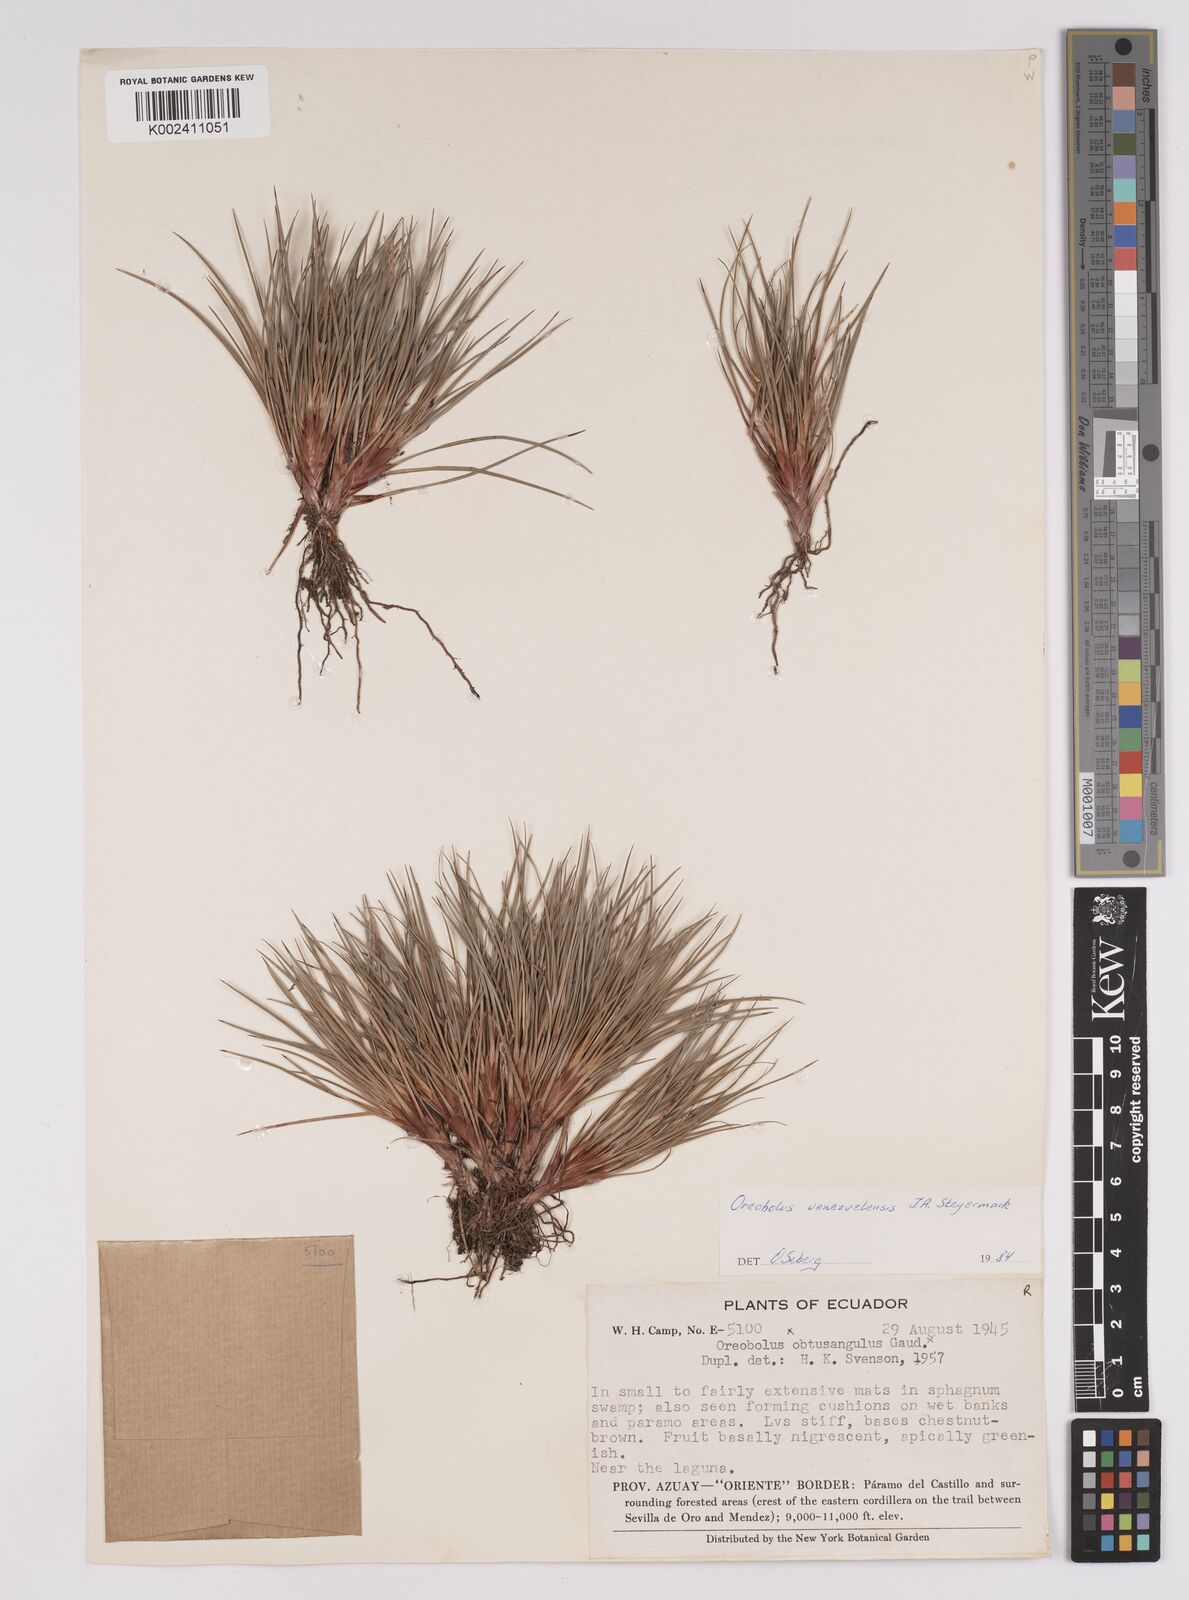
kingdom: Plantae
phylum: Tracheophyta
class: Liliopsida
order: Poales
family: Cyperaceae
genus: Oreobolus
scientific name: Oreobolus venezuelensis
